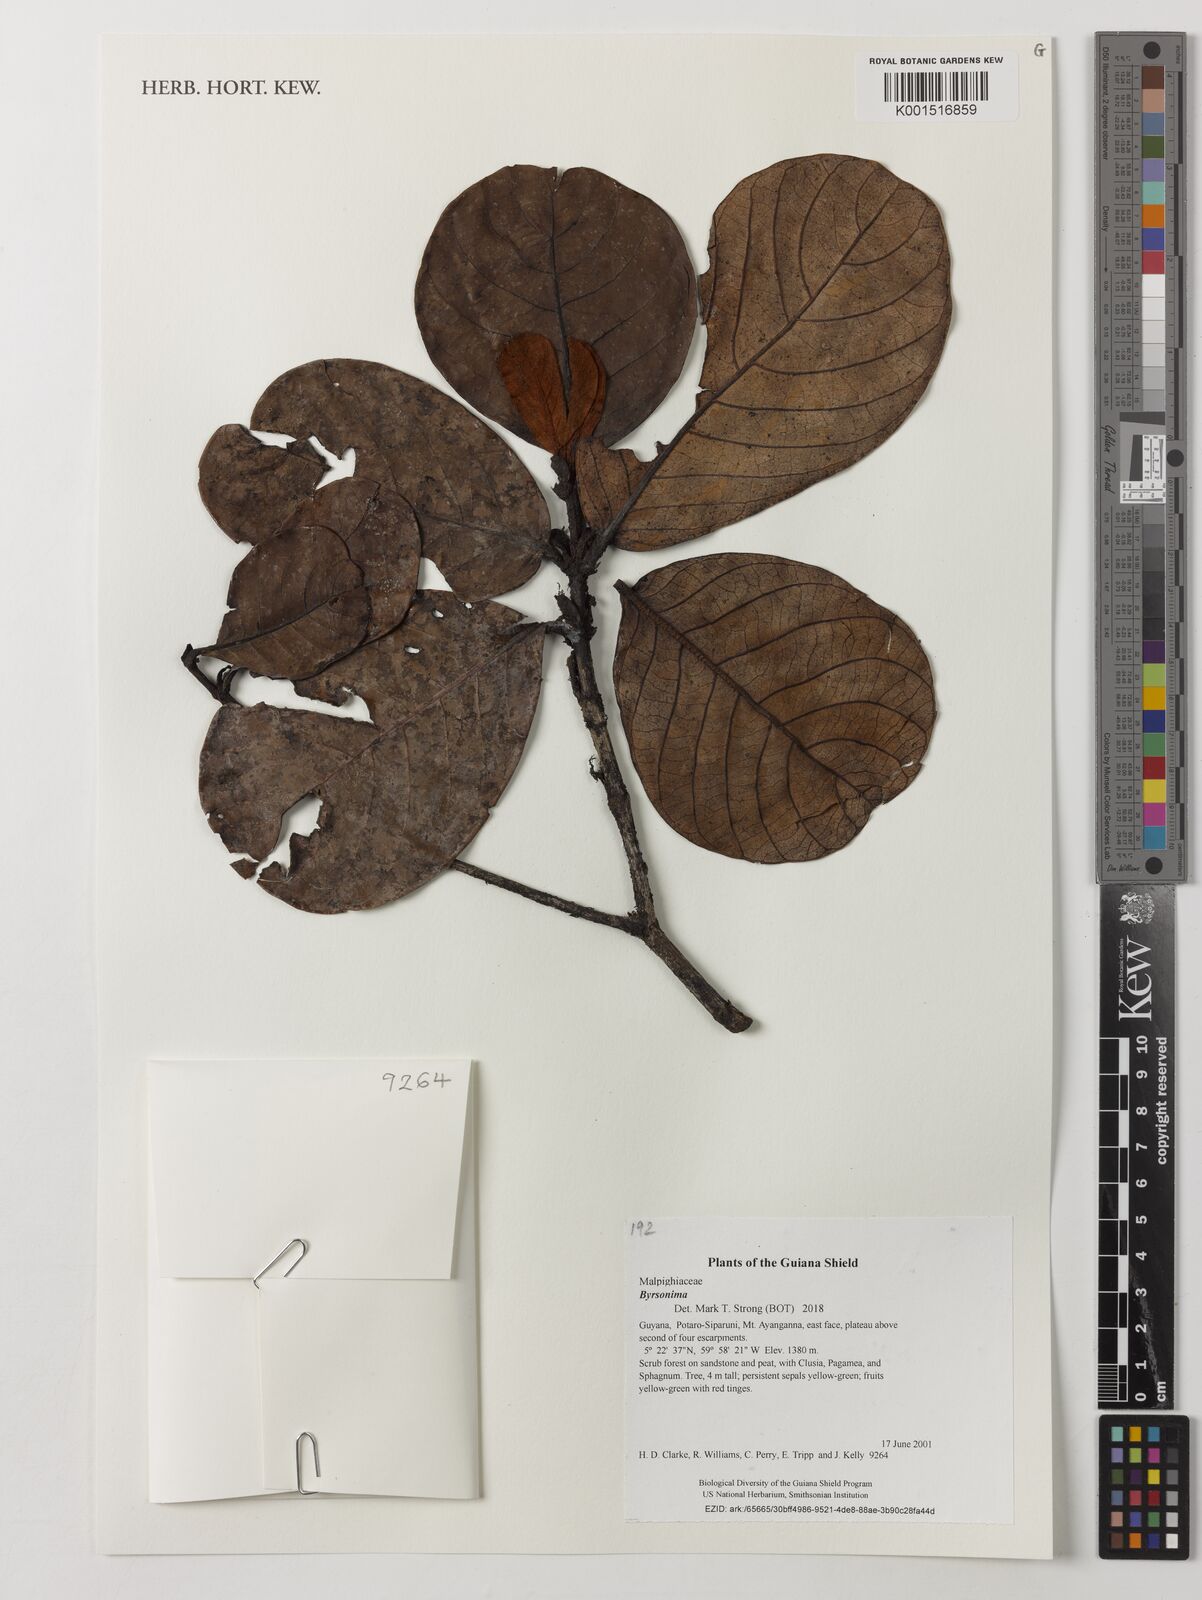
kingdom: Plantae
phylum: Tracheophyta
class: Magnoliopsida
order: Malpighiales
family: Malpighiaceae
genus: Byrsonima
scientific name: Byrsonima
